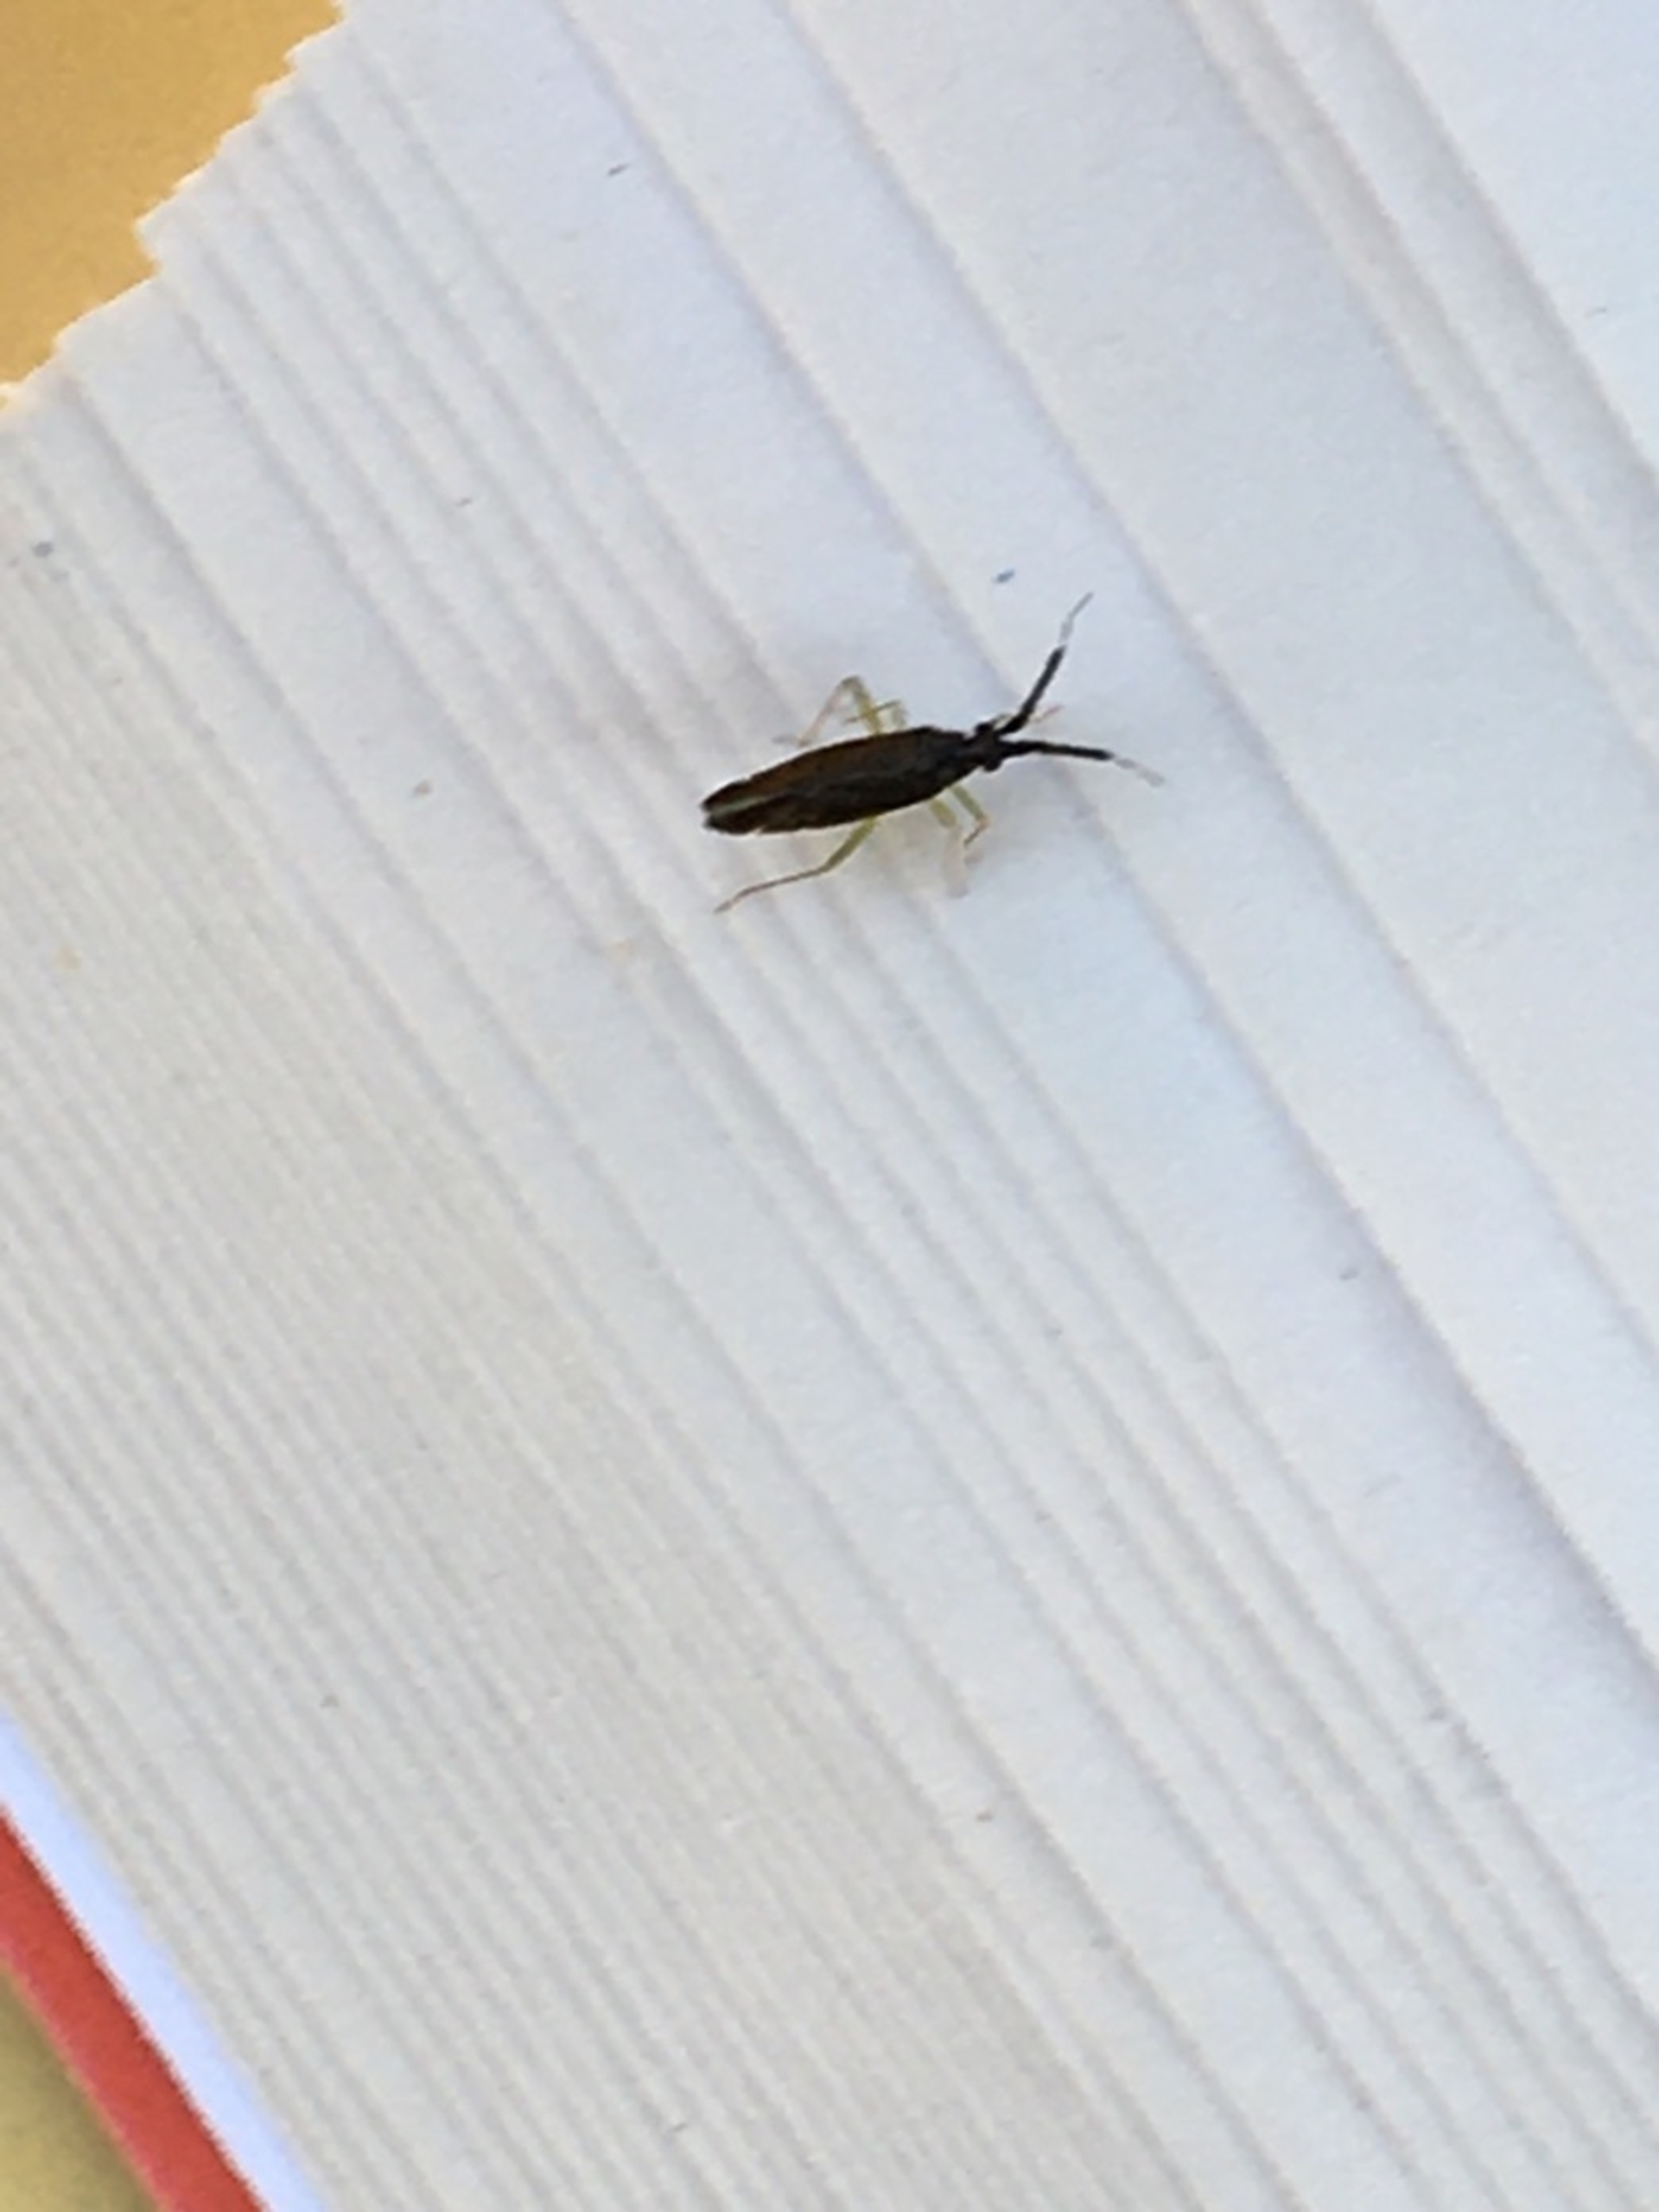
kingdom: Animalia
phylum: Arthropoda
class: Insecta
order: Hemiptera
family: Miridae
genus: Heterotoma
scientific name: Heterotoma planicornis
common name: Køllehornet blomstertæge
